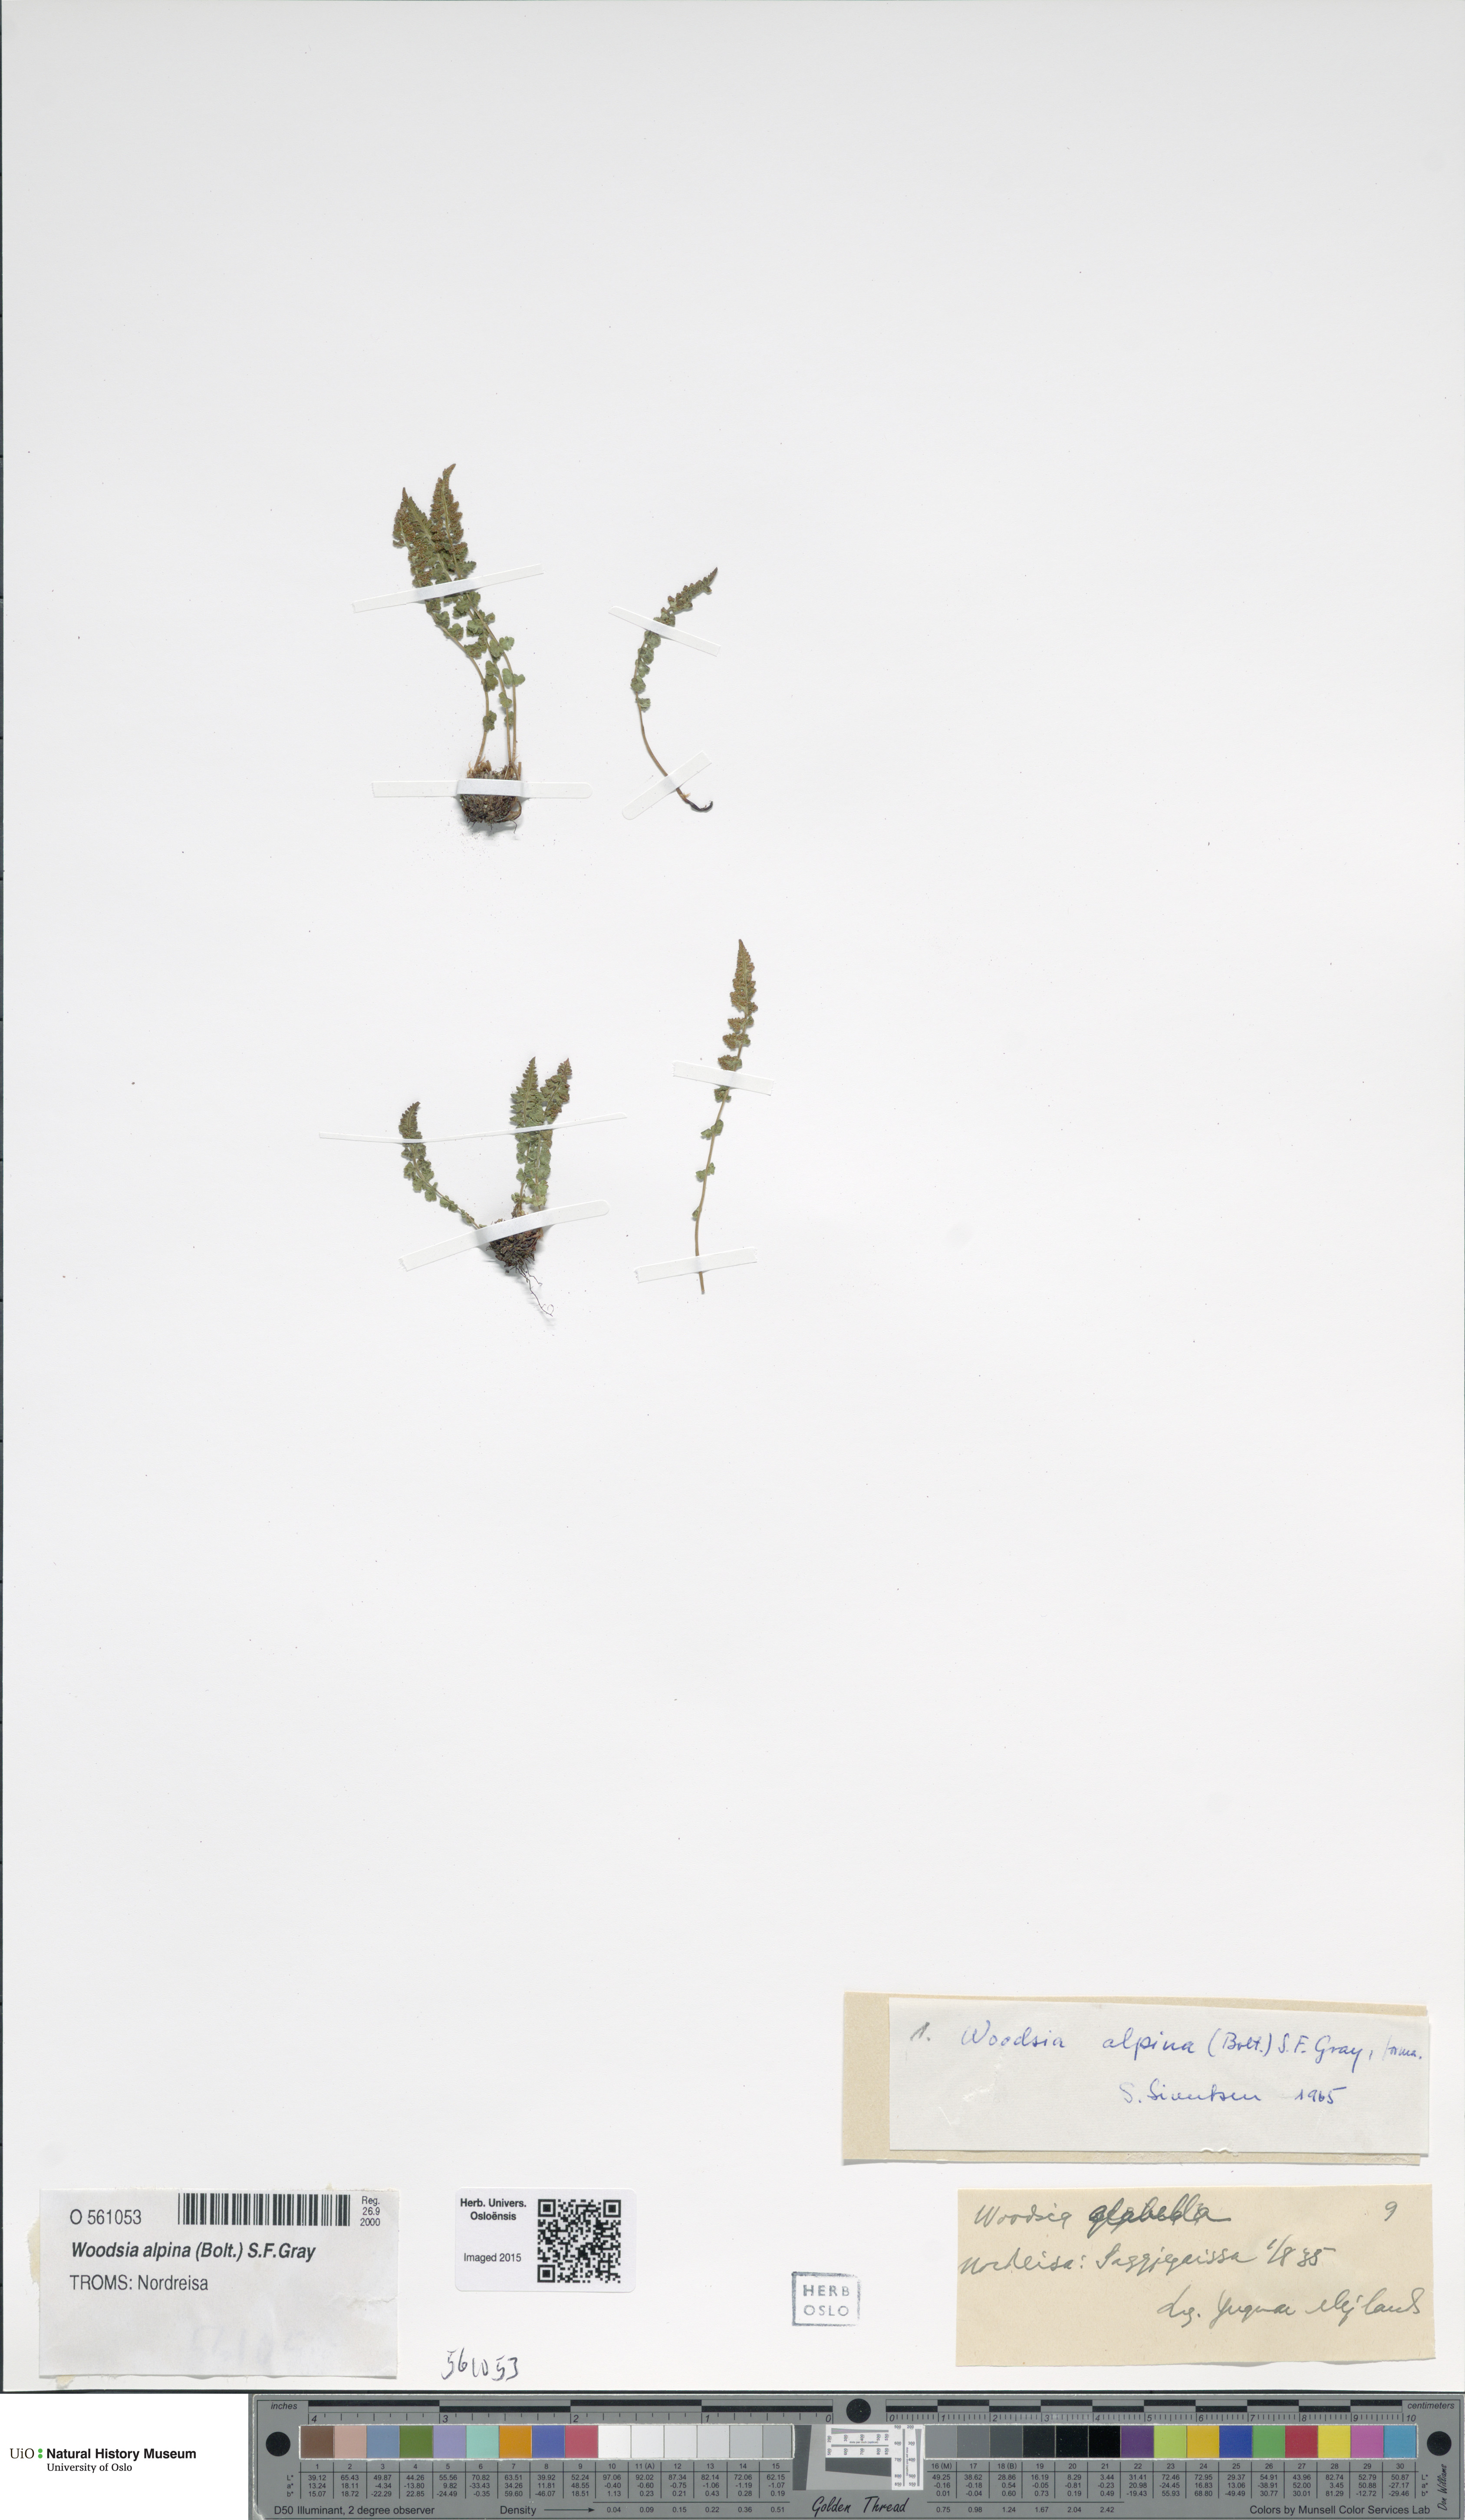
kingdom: Plantae
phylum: Tracheophyta
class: Polypodiopsida
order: Polypodiales
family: Woodsiaceae
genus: Woodsia
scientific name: Woodsia glabella
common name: Smooth woodsia
